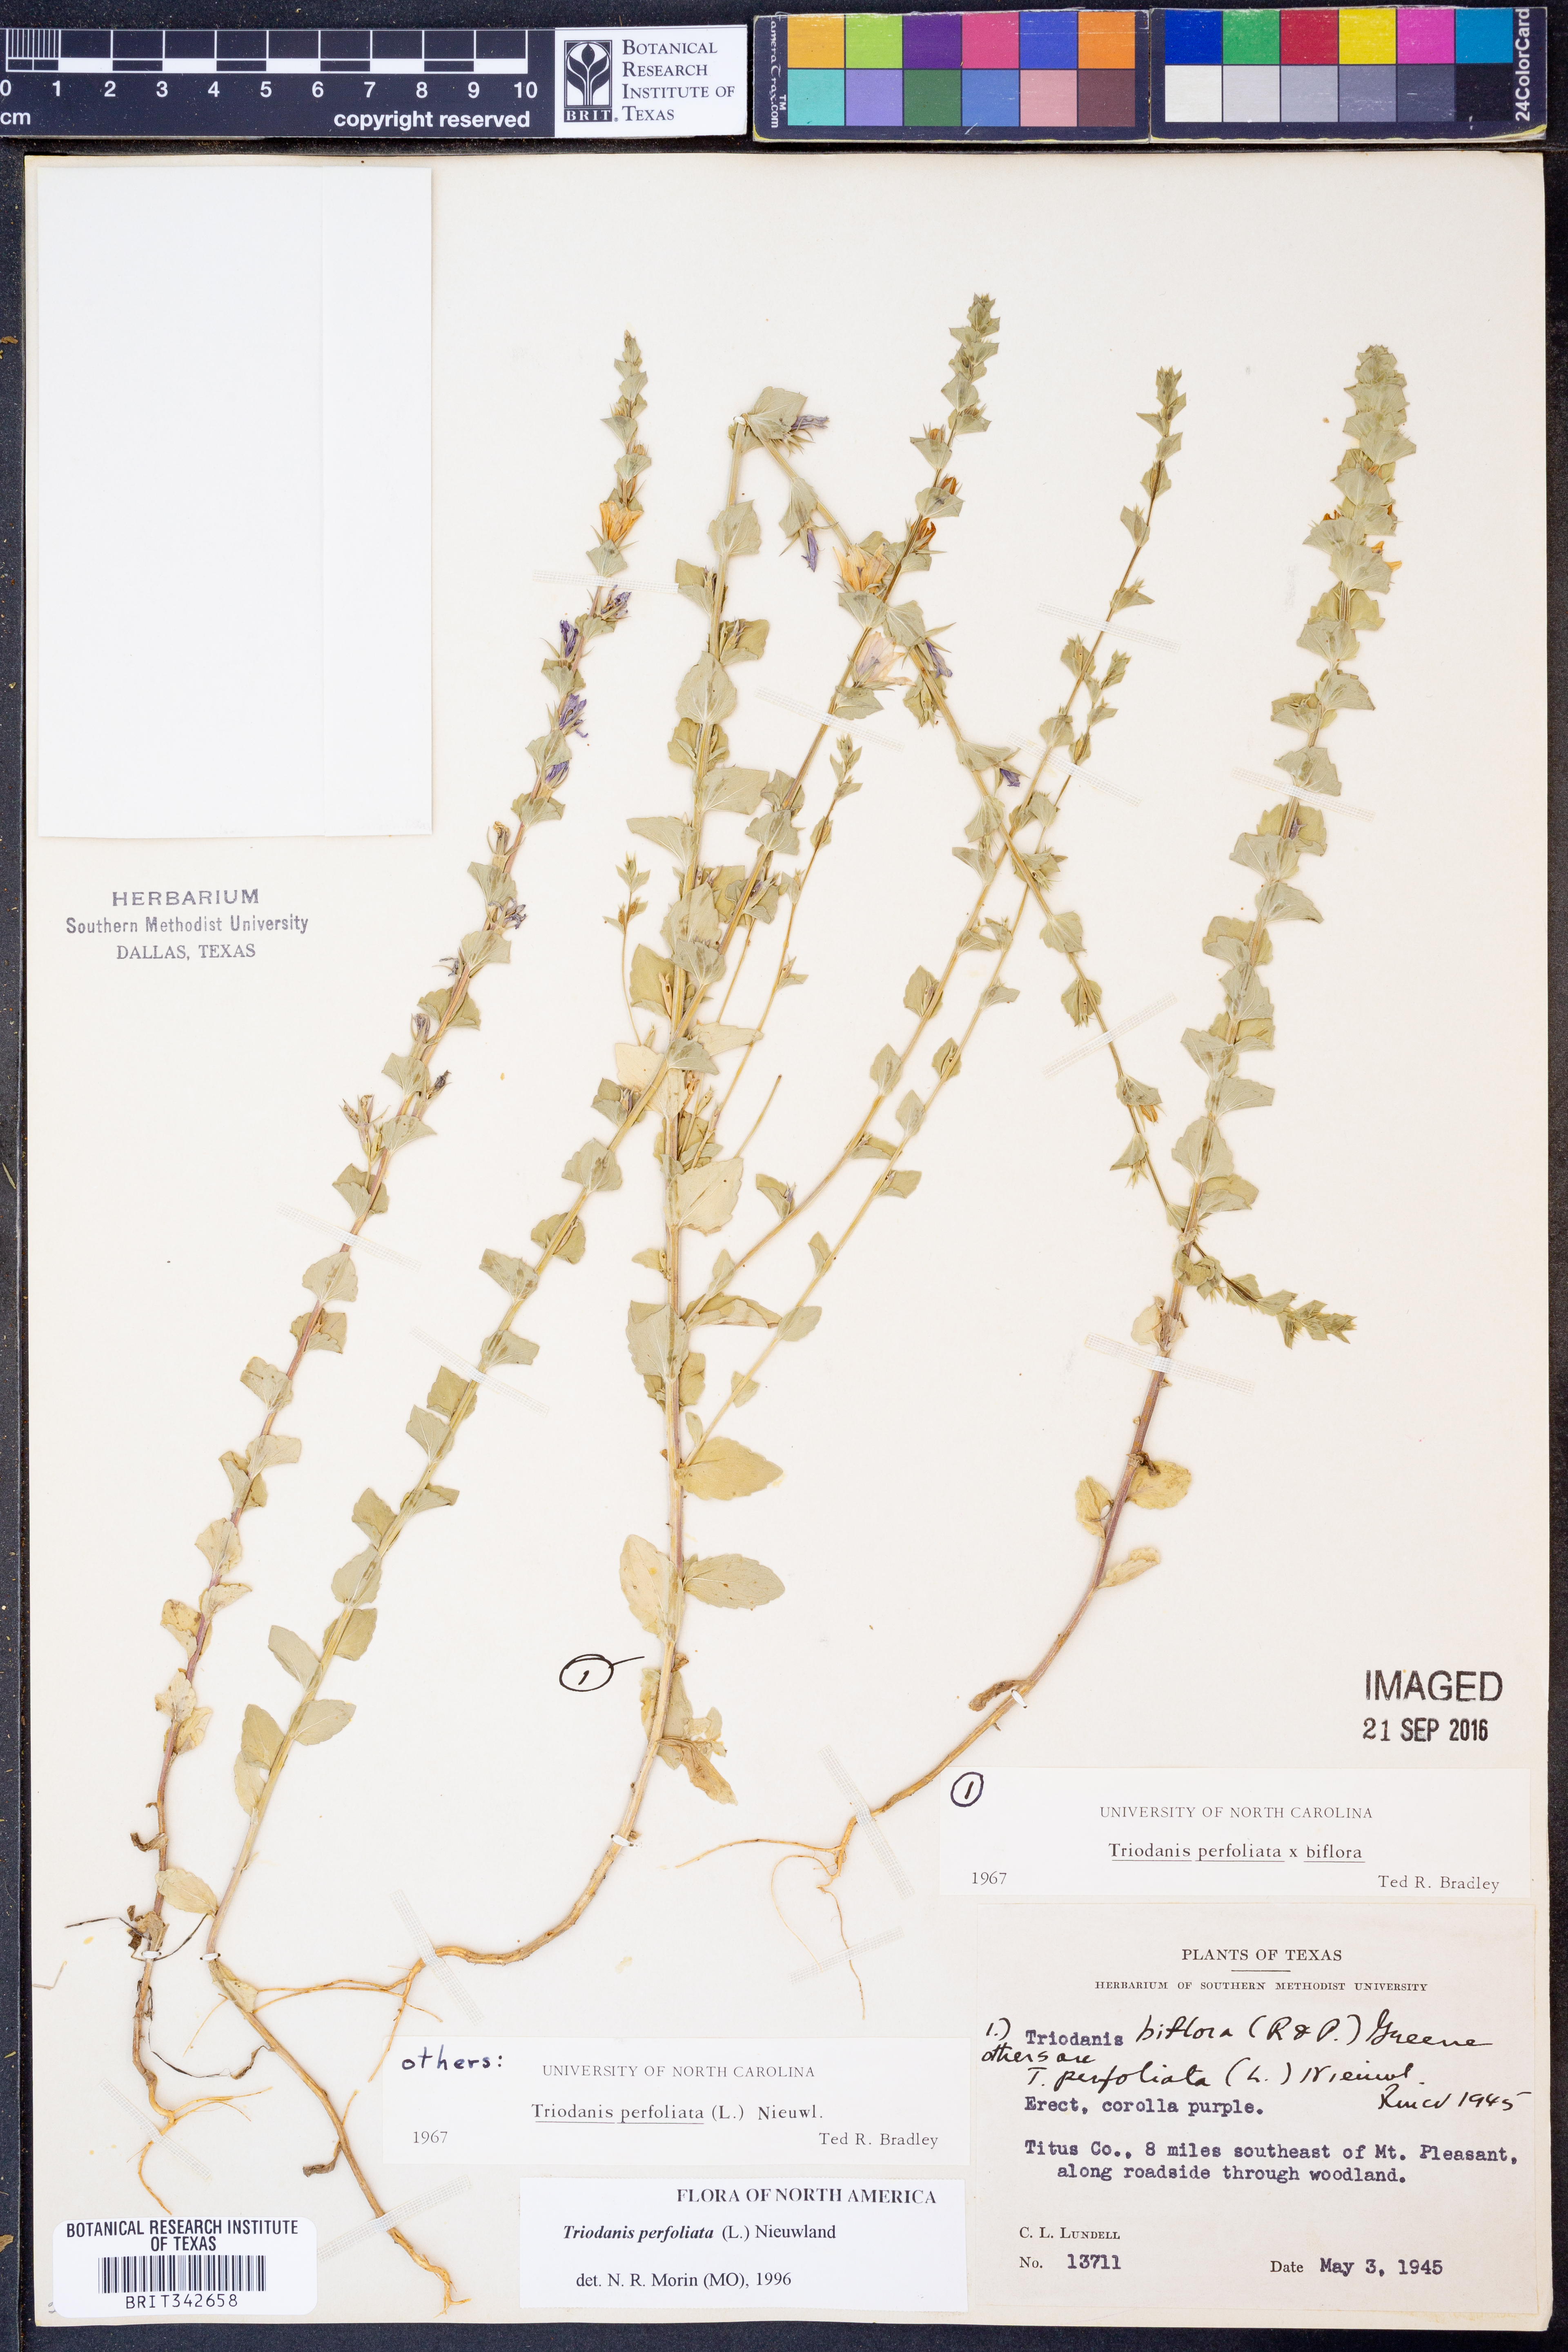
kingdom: Plantae
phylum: Tracheophyta
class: Magnoliopsida
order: Asterales
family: Campanulaceae
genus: Triodanis
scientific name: Triodanis perfoliata
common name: Clasping venus' looking-glass
